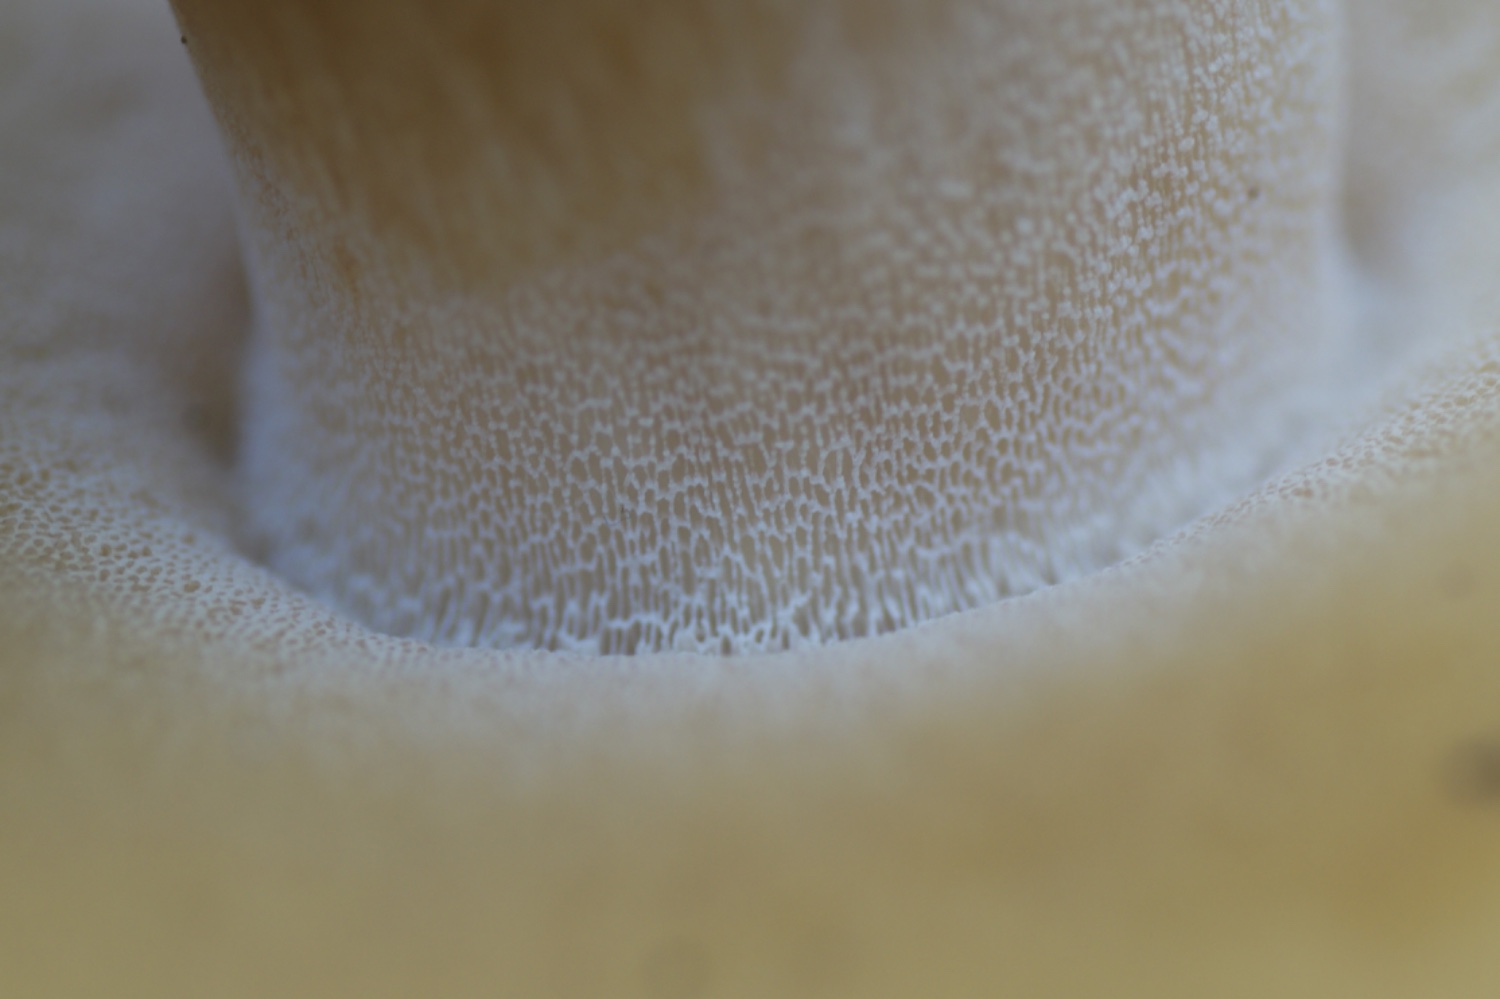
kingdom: Fungi
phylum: Basidiomycota
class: Agaricomycetes
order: Boletales
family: Boletaceae
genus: Boletus
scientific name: Boletus pinophilus
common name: rødbrun rørhat
